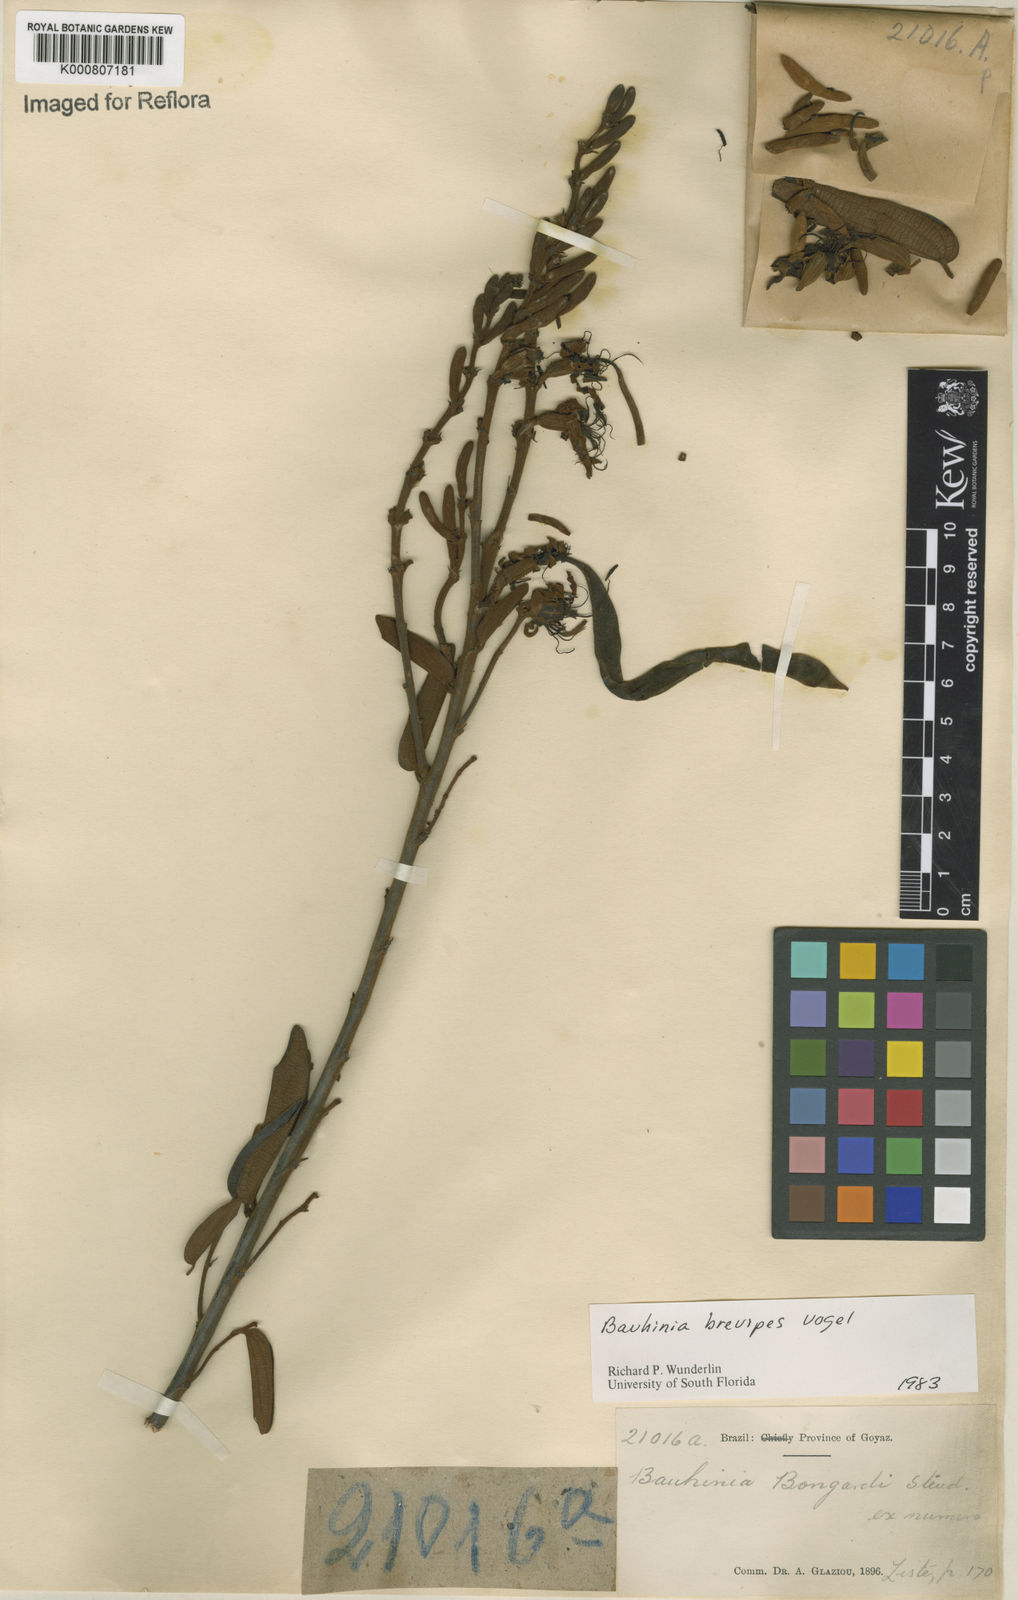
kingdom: Plantae
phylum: Tracheophyta
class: Magnoliopsida
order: Fabales
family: Fabaceae
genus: Bauhinia
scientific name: Bauhinia brevipes
